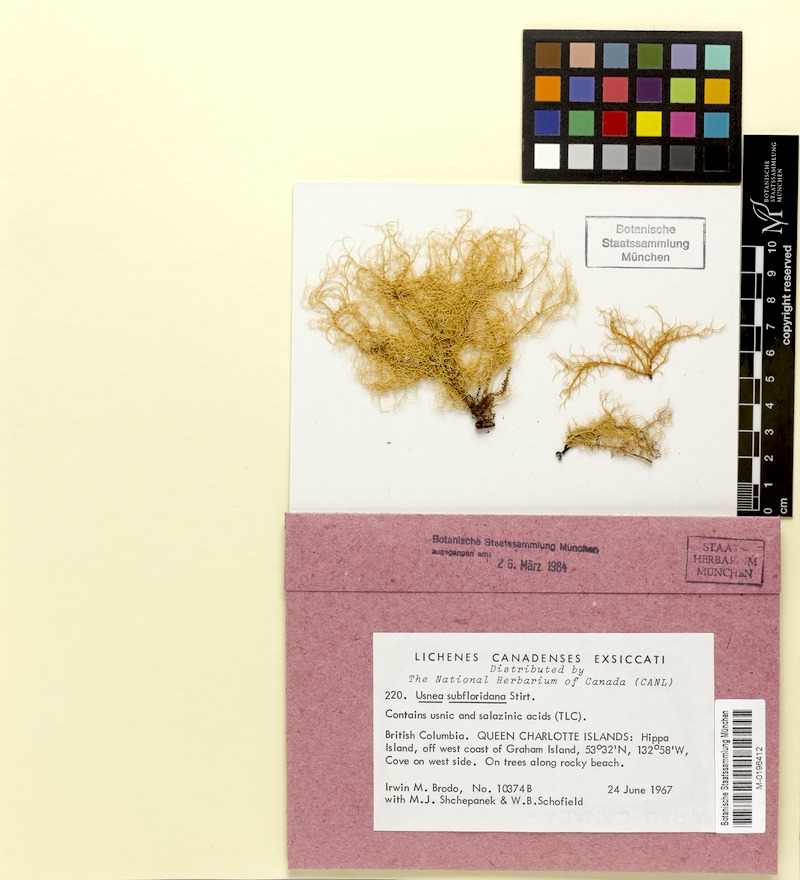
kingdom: Fungi
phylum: Ascomycota
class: Lecanoromycetes
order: Lecanorales
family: Parmeliaceae
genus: Usnea
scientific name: Usnea subfloridana
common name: Boreal beard lichen
